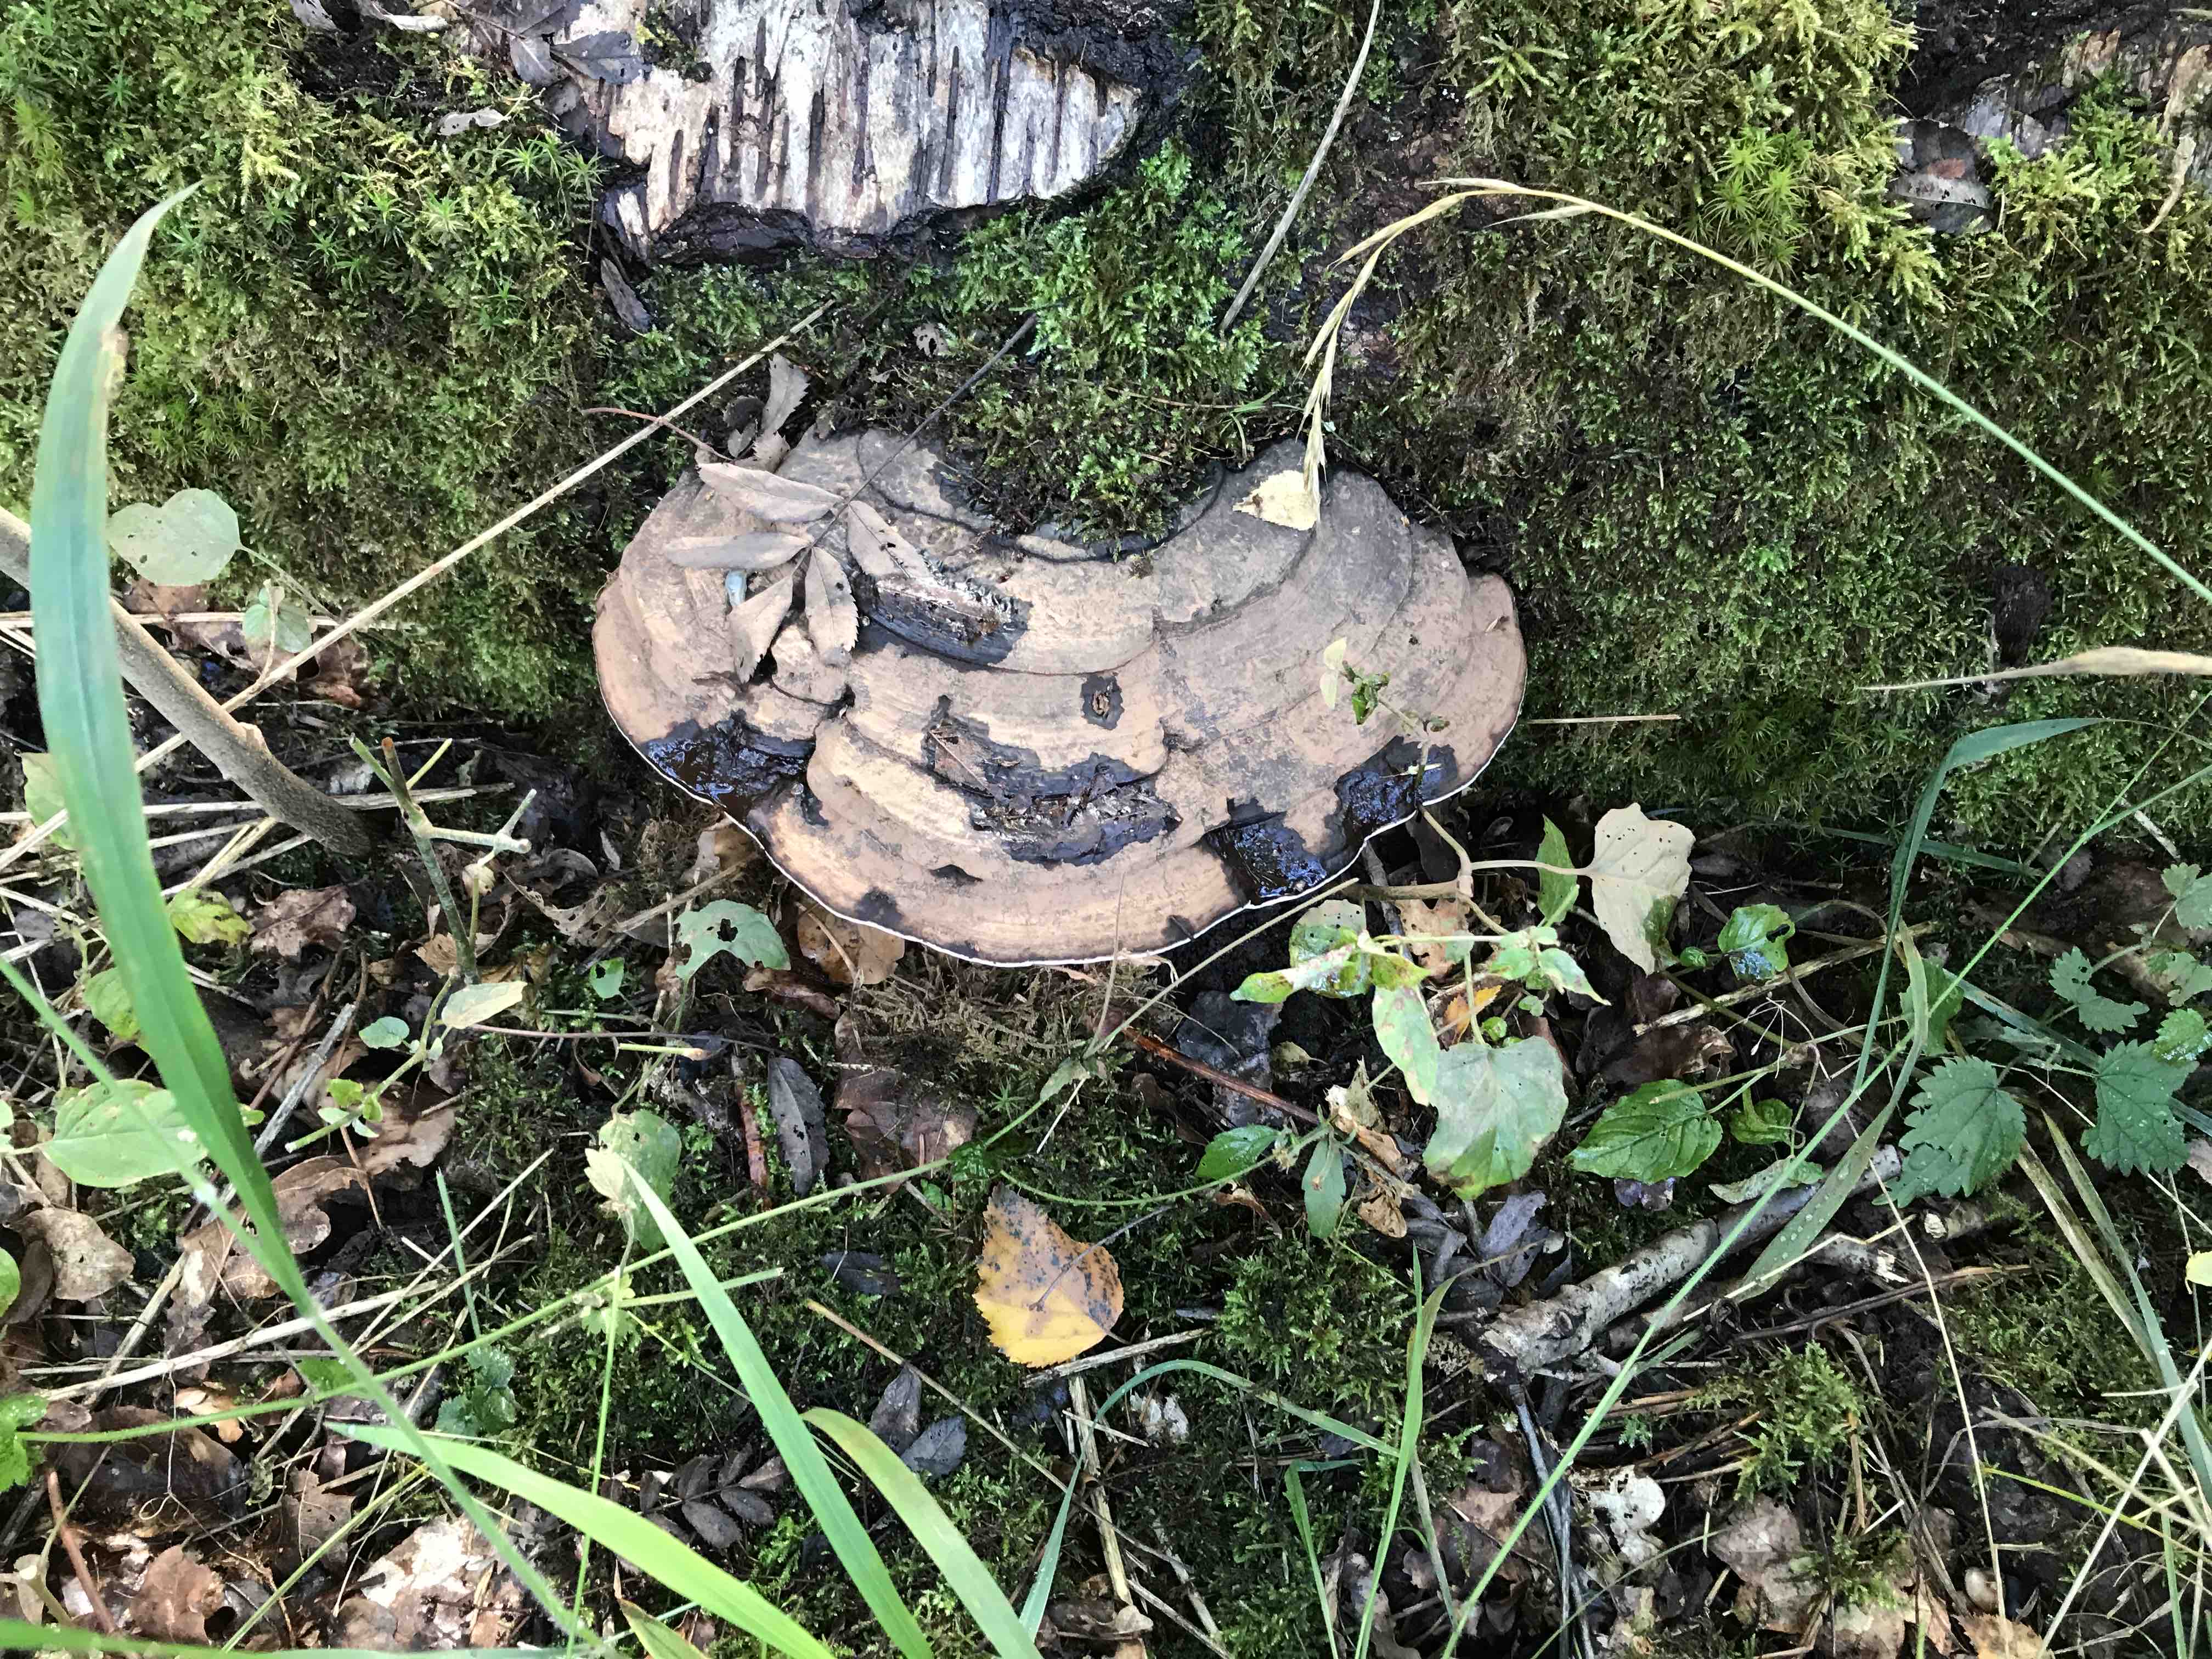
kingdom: Fungi
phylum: Basidiomycota
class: Agaricomycetes
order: Polyporales
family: Polyporaceae
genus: Ganoderma
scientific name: Ganoderma applanatum
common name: flad lakporesvamp
